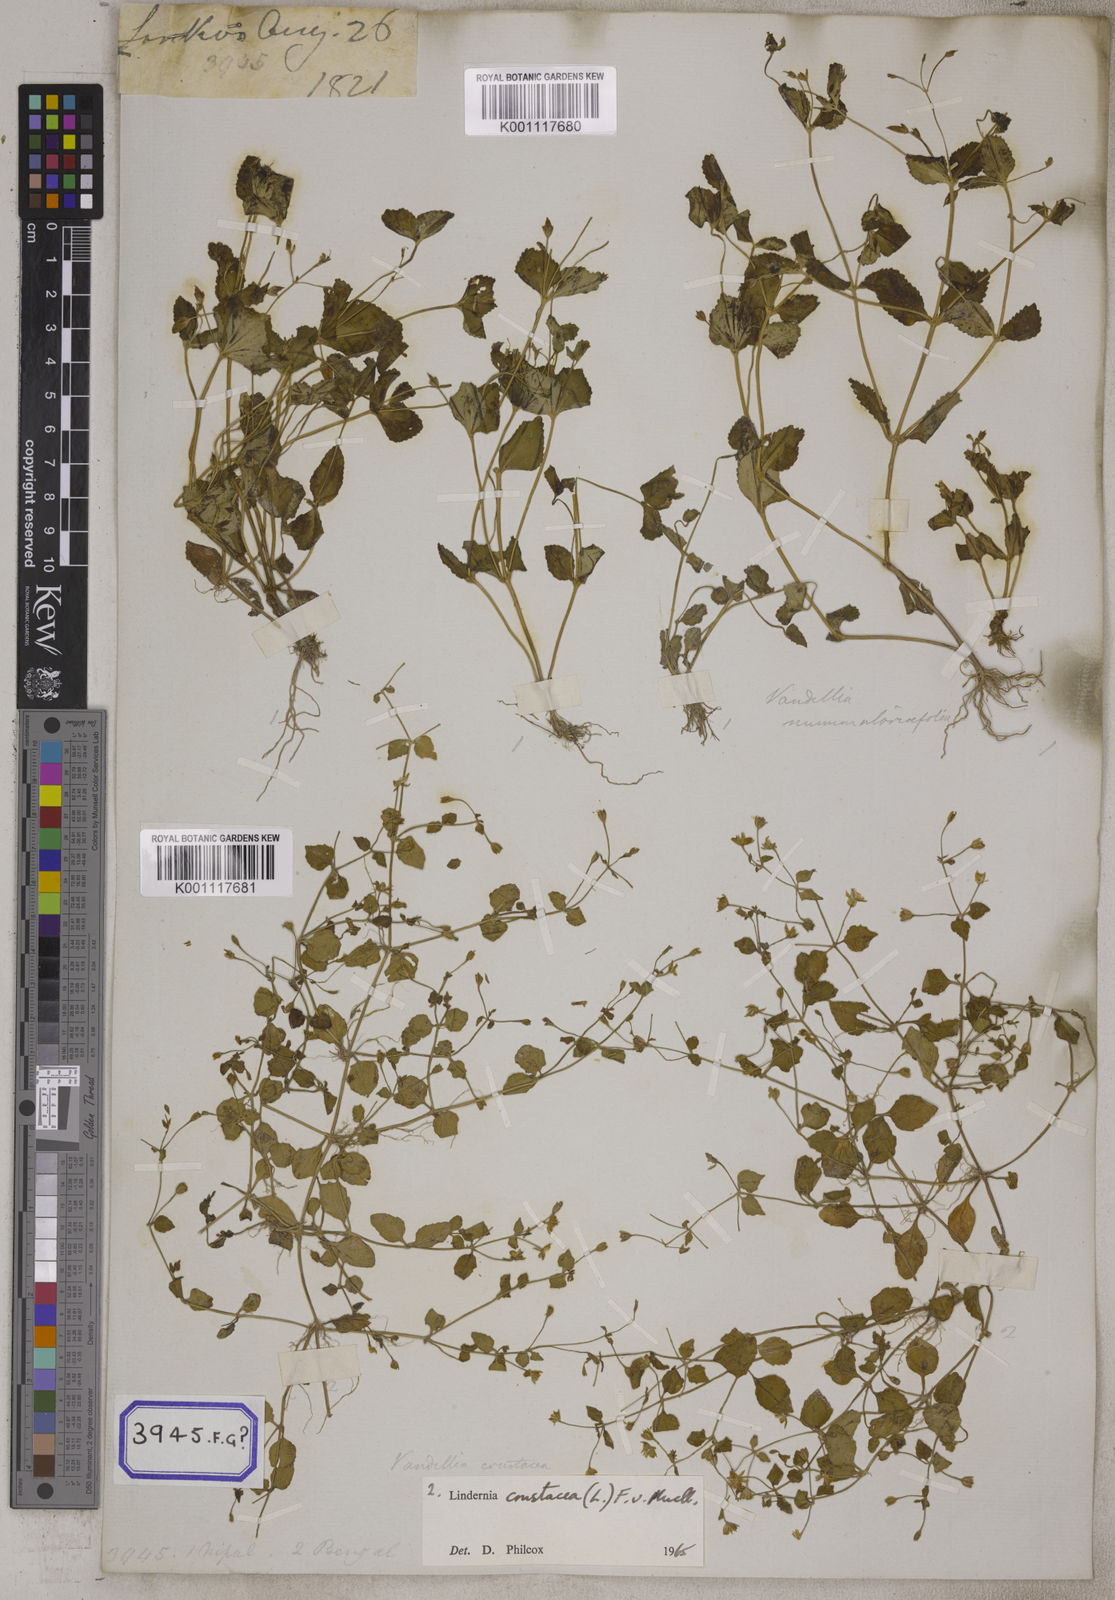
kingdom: Plantae
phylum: Tracheophyta
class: Magnoliopsida
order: Lamiales
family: Linderniaceae
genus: Yamazakia
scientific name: Yamazakia pusilla
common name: Tiny slitwort
